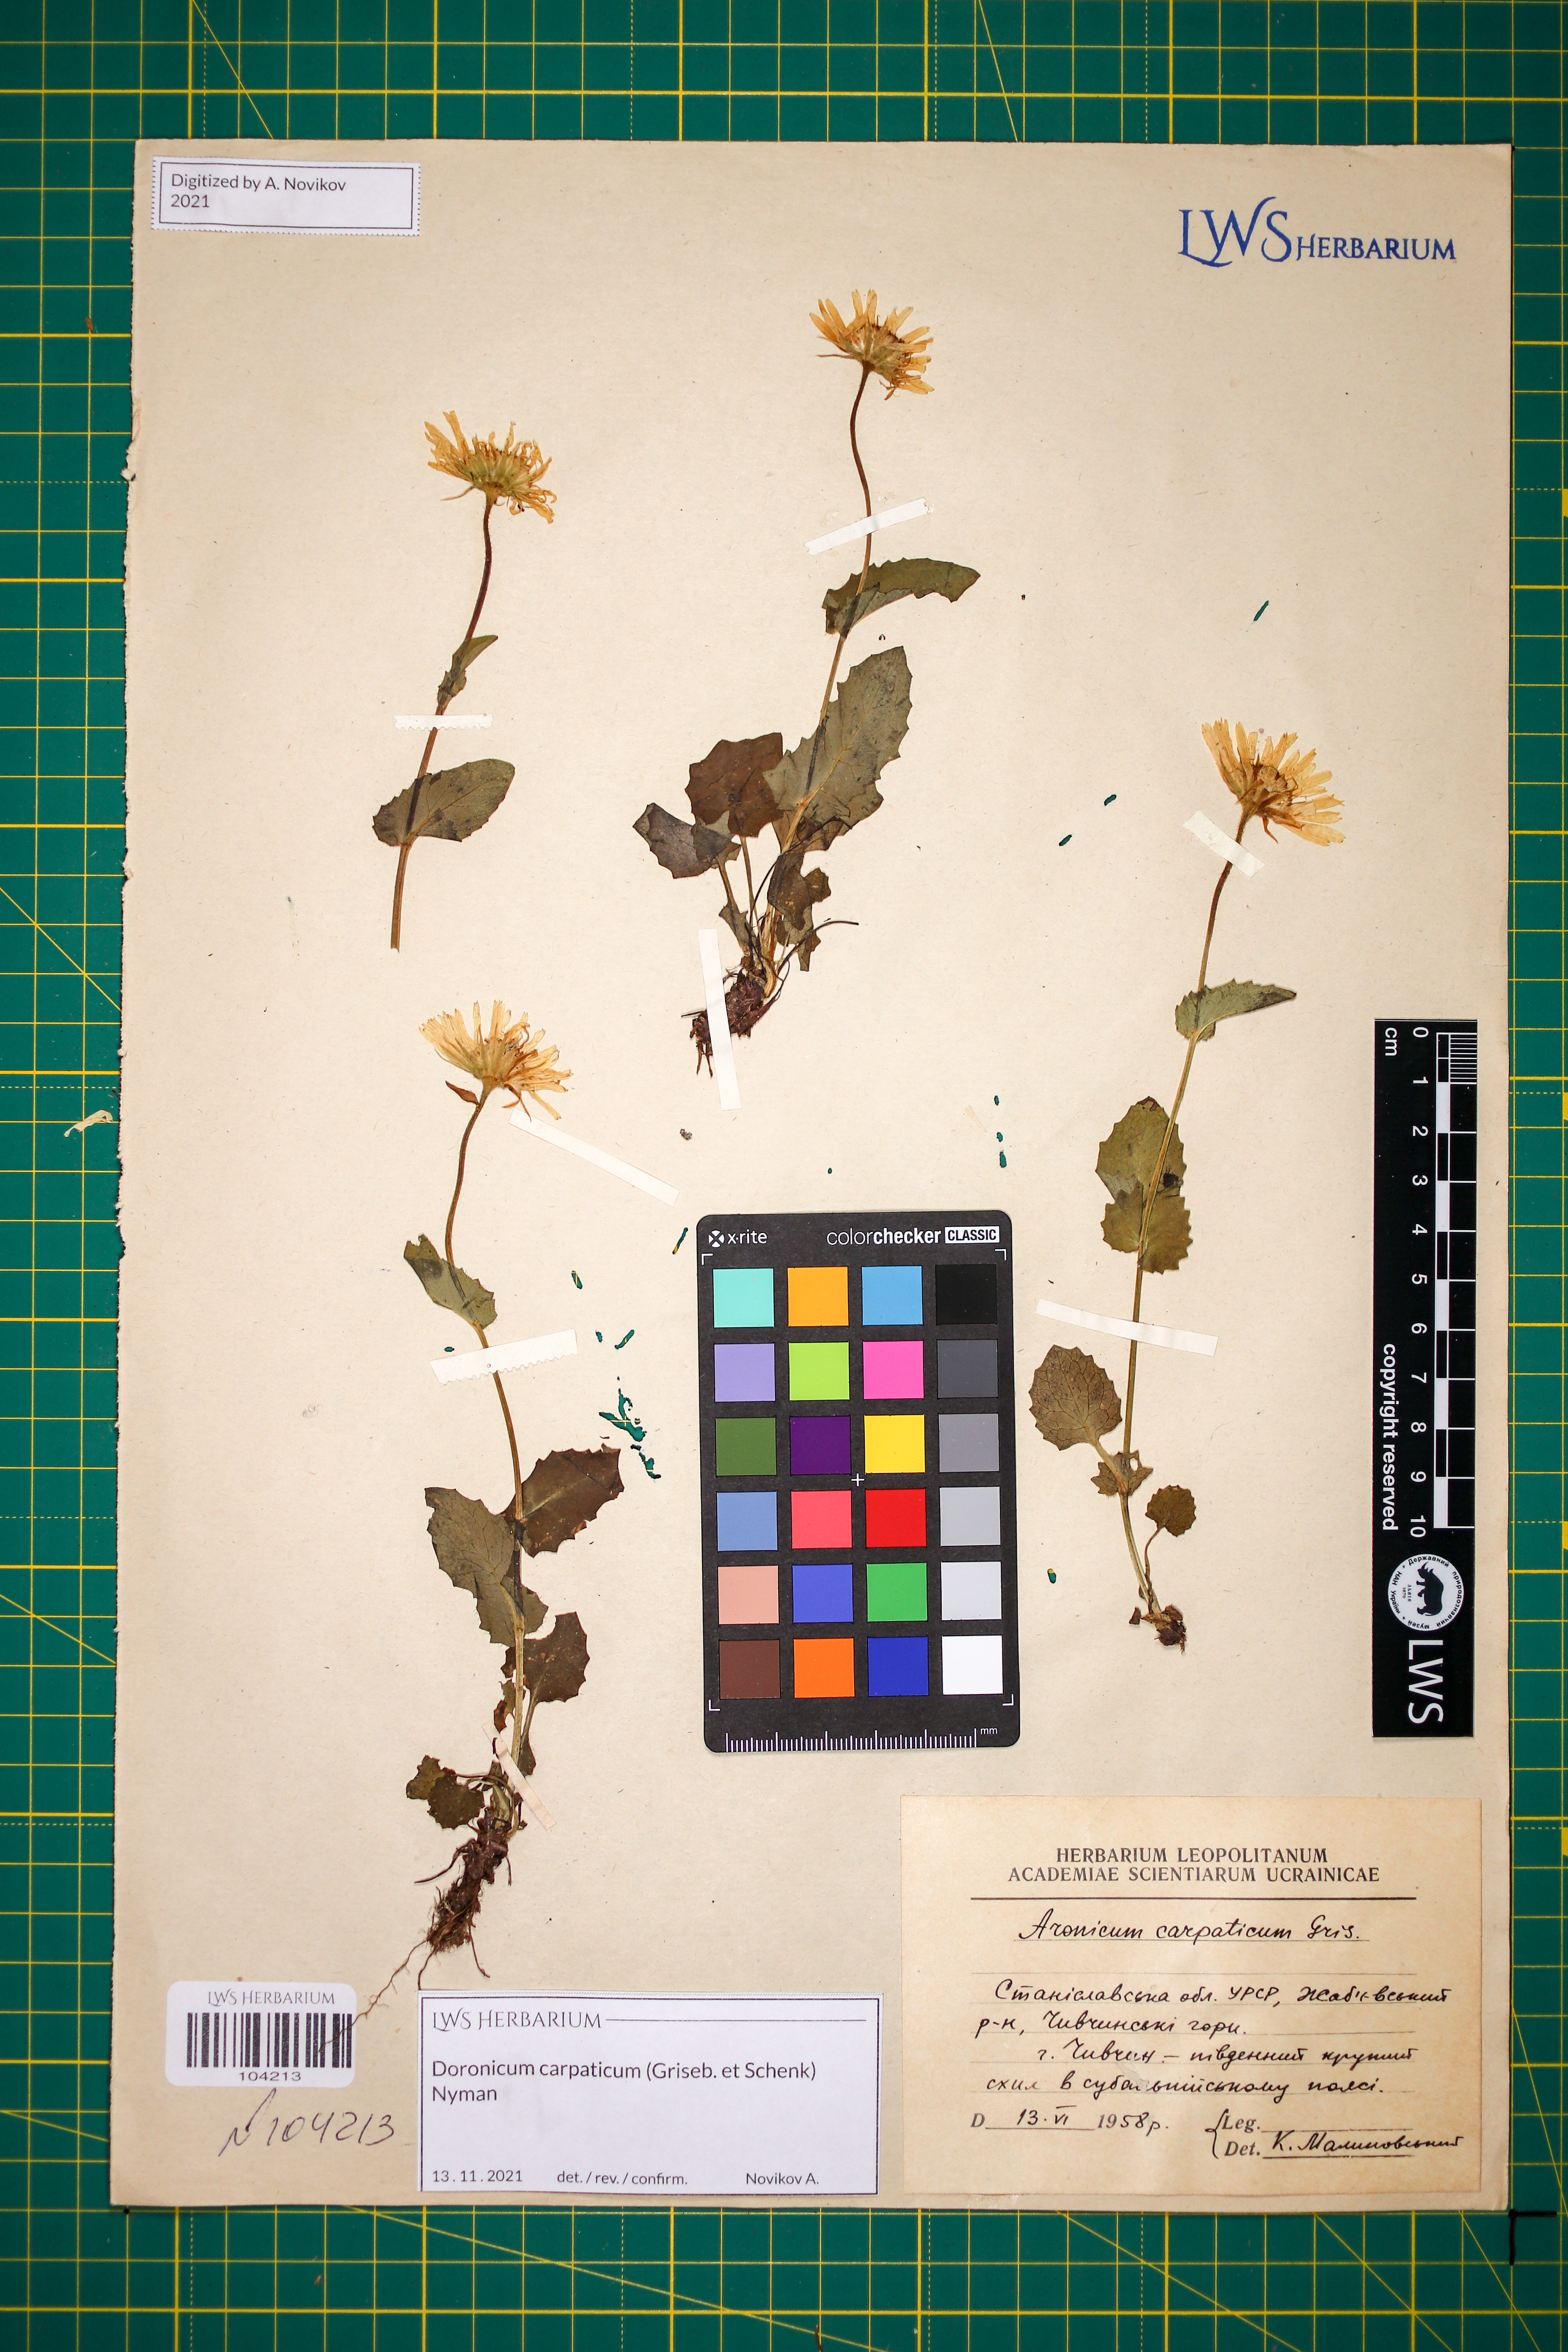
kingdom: Plantae
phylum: Tracheophyta
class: Magnoliopsida
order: Asterales
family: Asteraceae
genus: Doronicum
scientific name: Doronicum carpaticum
